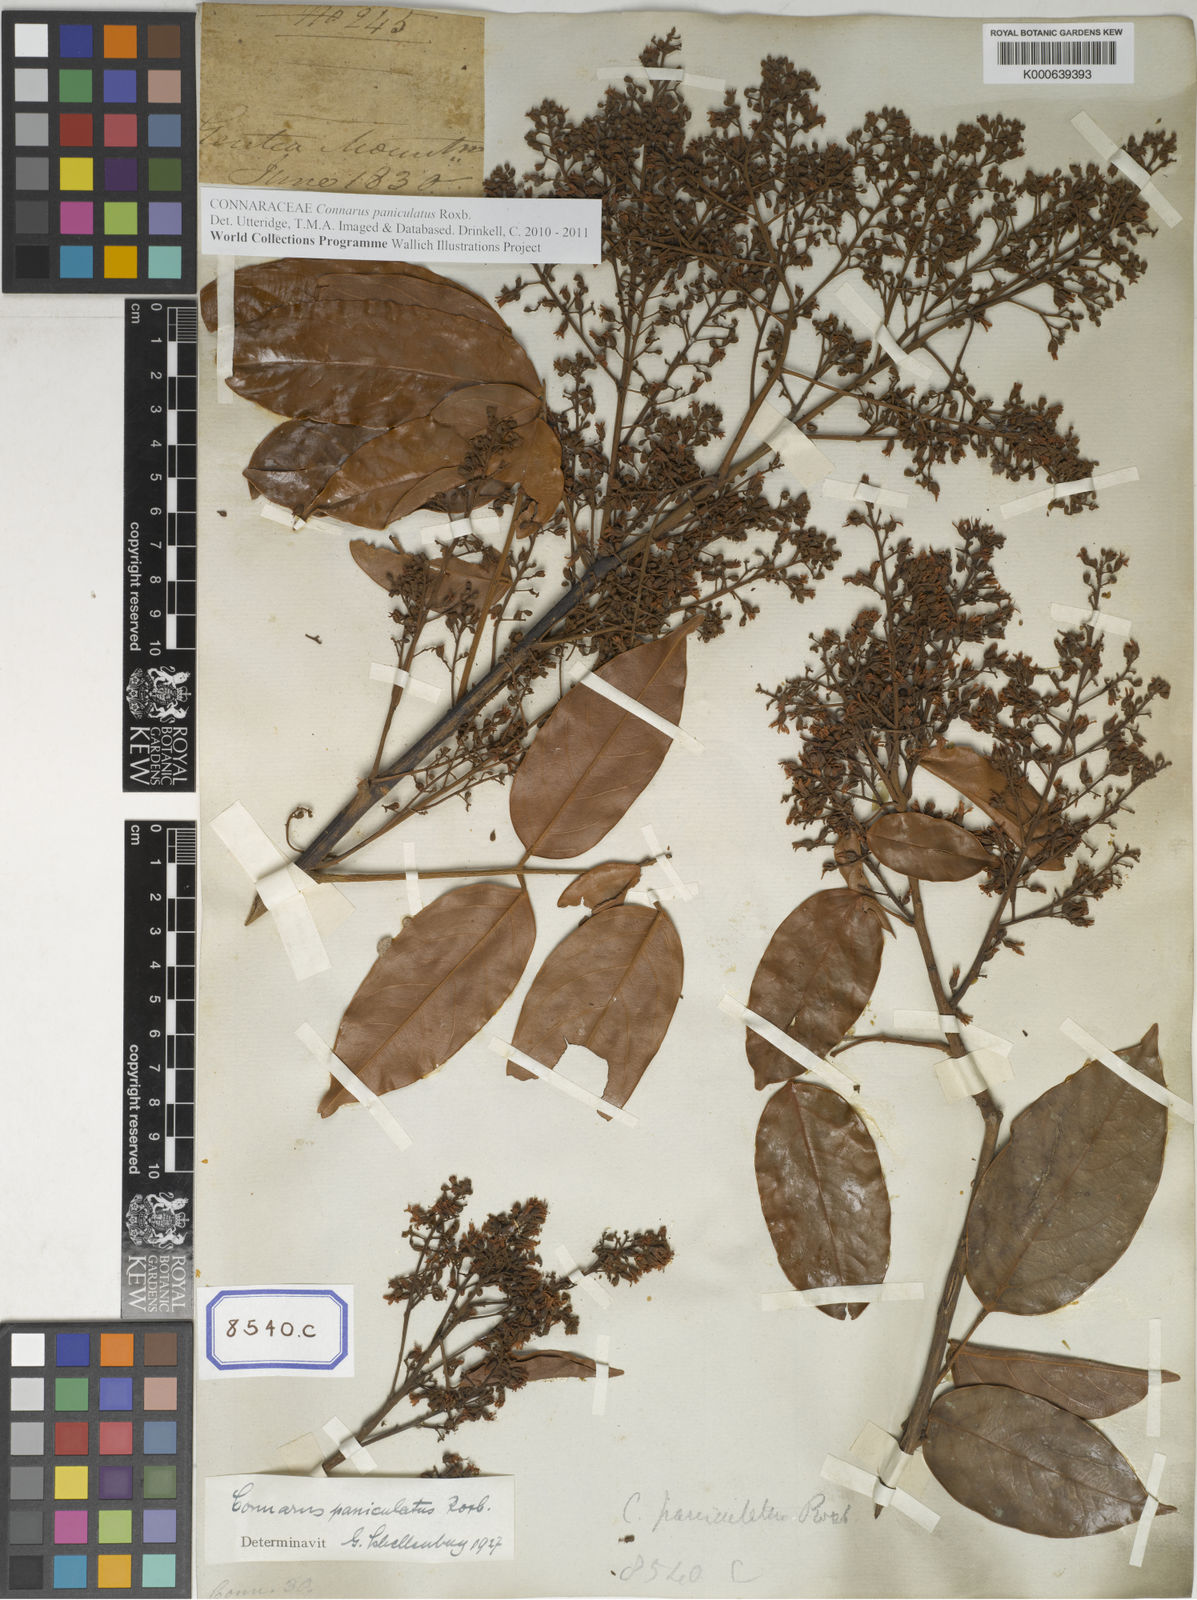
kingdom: Plantae
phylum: Tracheophyta
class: Magnoliopsida
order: Oxalidales
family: Connaraceae
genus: Connarus
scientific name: Connarus paniculatus
